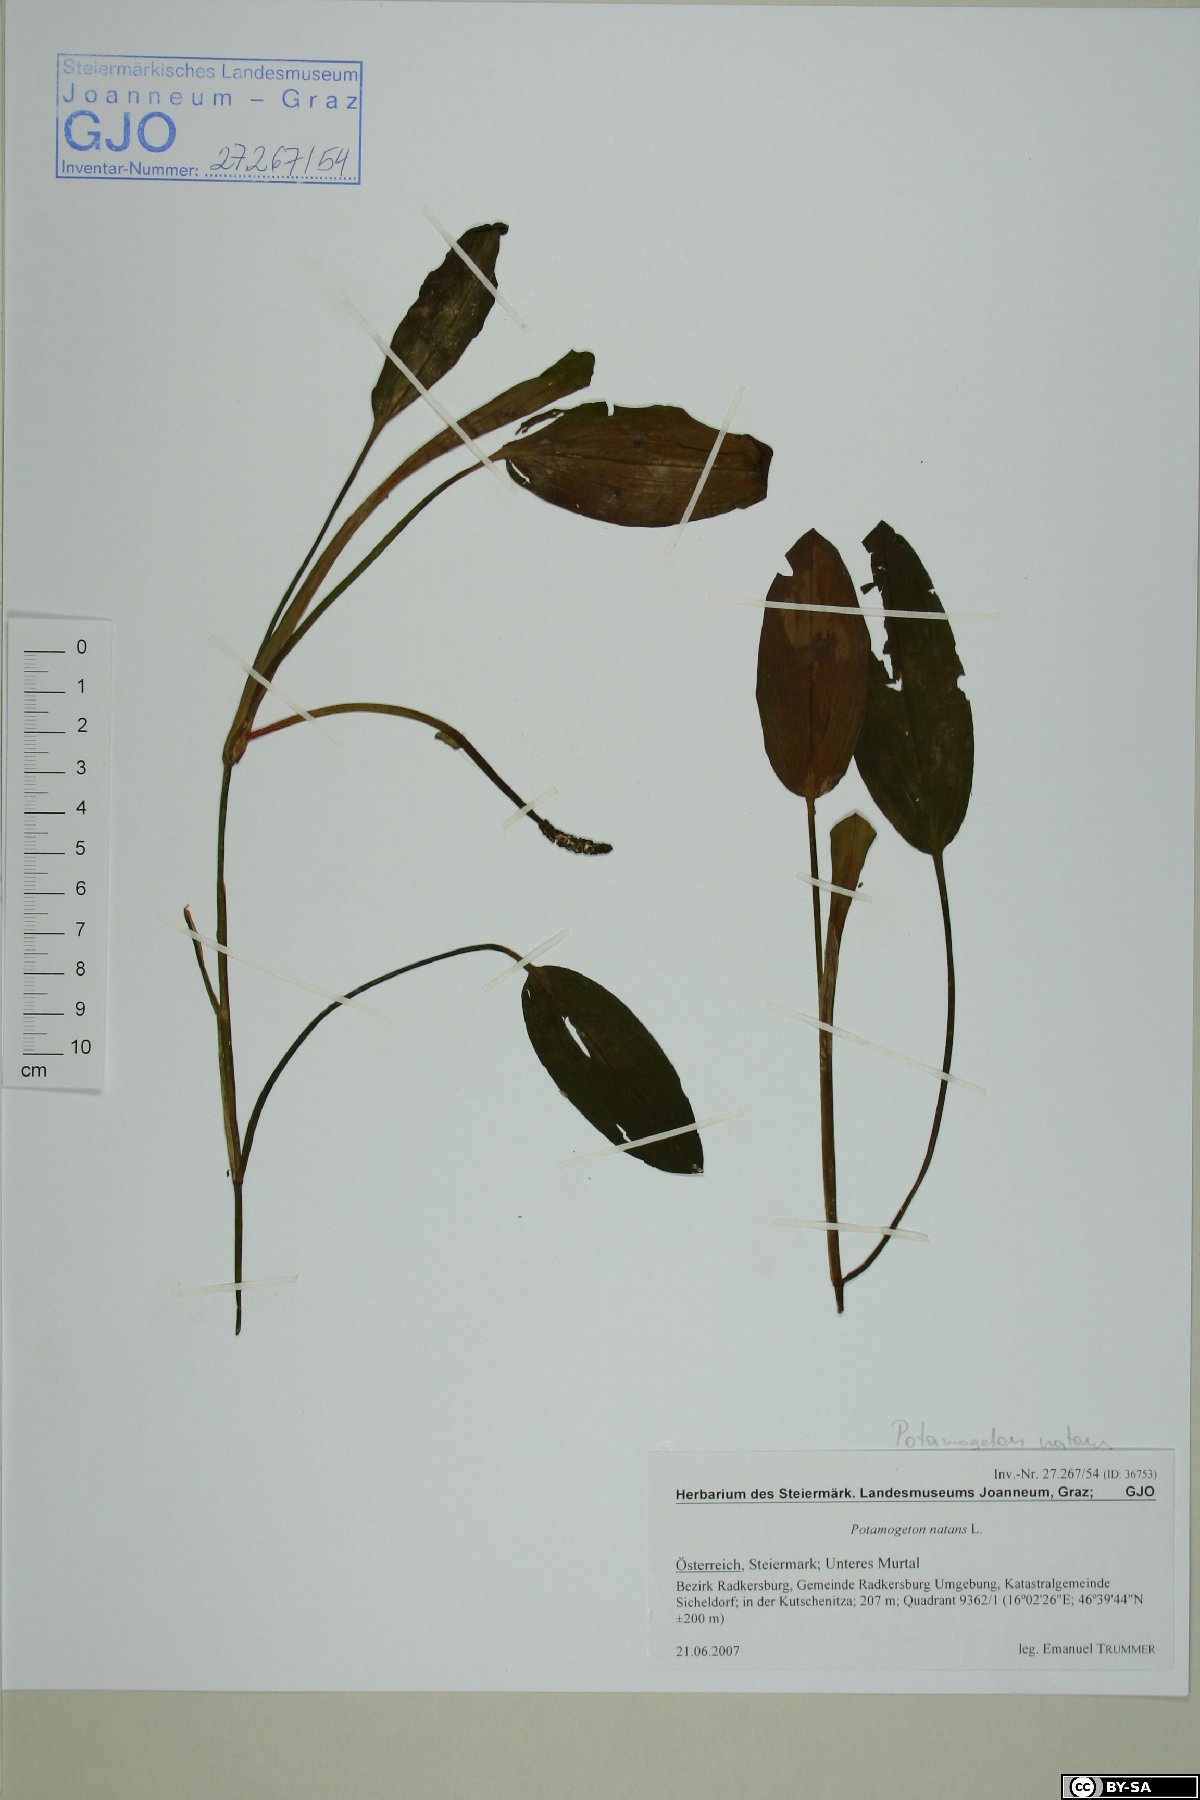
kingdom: Plantae
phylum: Tracheophyta
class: Liliopsida
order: Alismatales
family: Potamogetonaceae
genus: Potamogeton
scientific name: Potamogeton natans
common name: Broad-leaved pondweed
